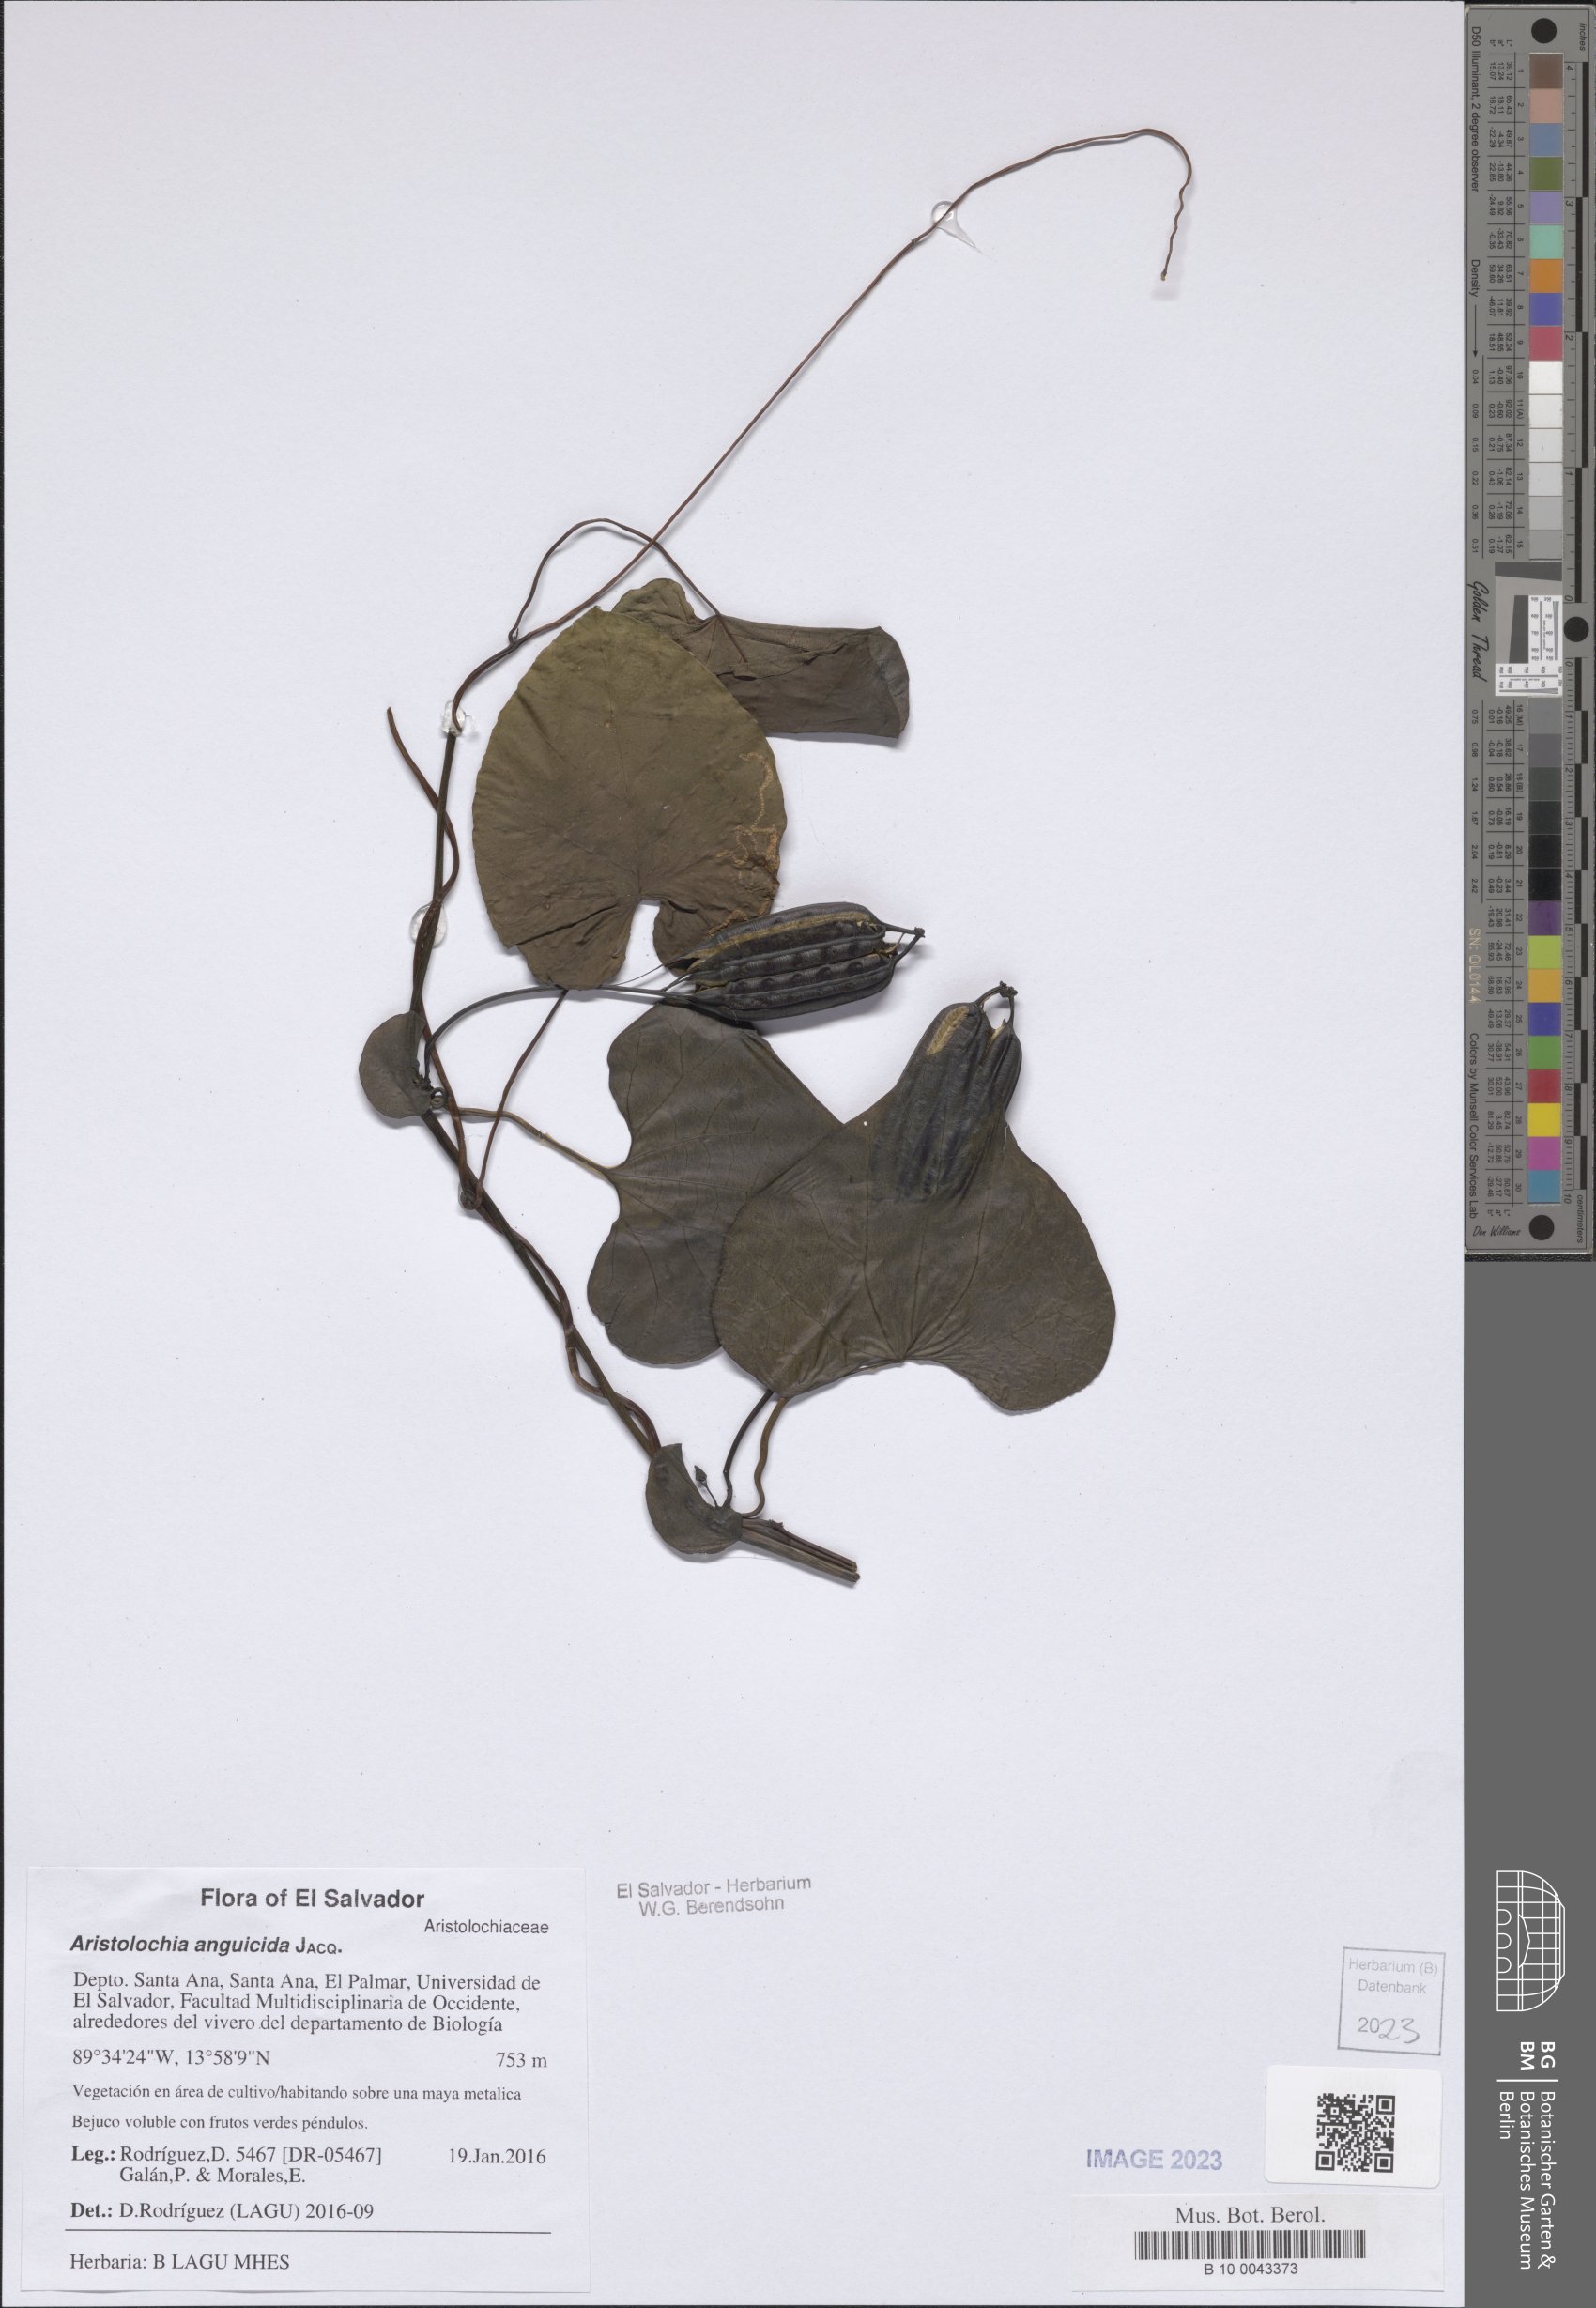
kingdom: Plantae
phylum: Tracheophyta
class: Magnoliopsida
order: Piperales
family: Aristolochiaceae
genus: Aristolochia
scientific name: Aristolochia anguicida
